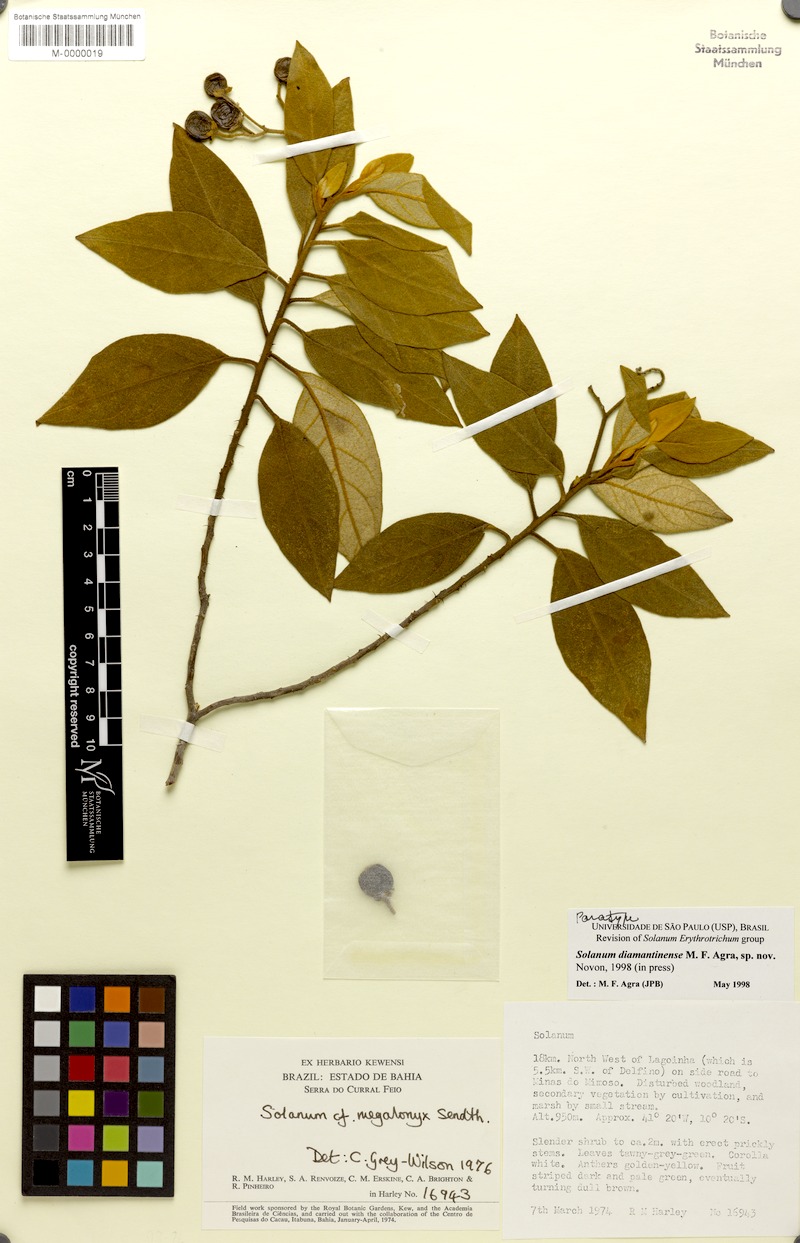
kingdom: Plantae
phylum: Tracheophyta
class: Magnoliopsida
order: Solanales
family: Solanaceae
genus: Solanum
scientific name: Solanum diamantinense
